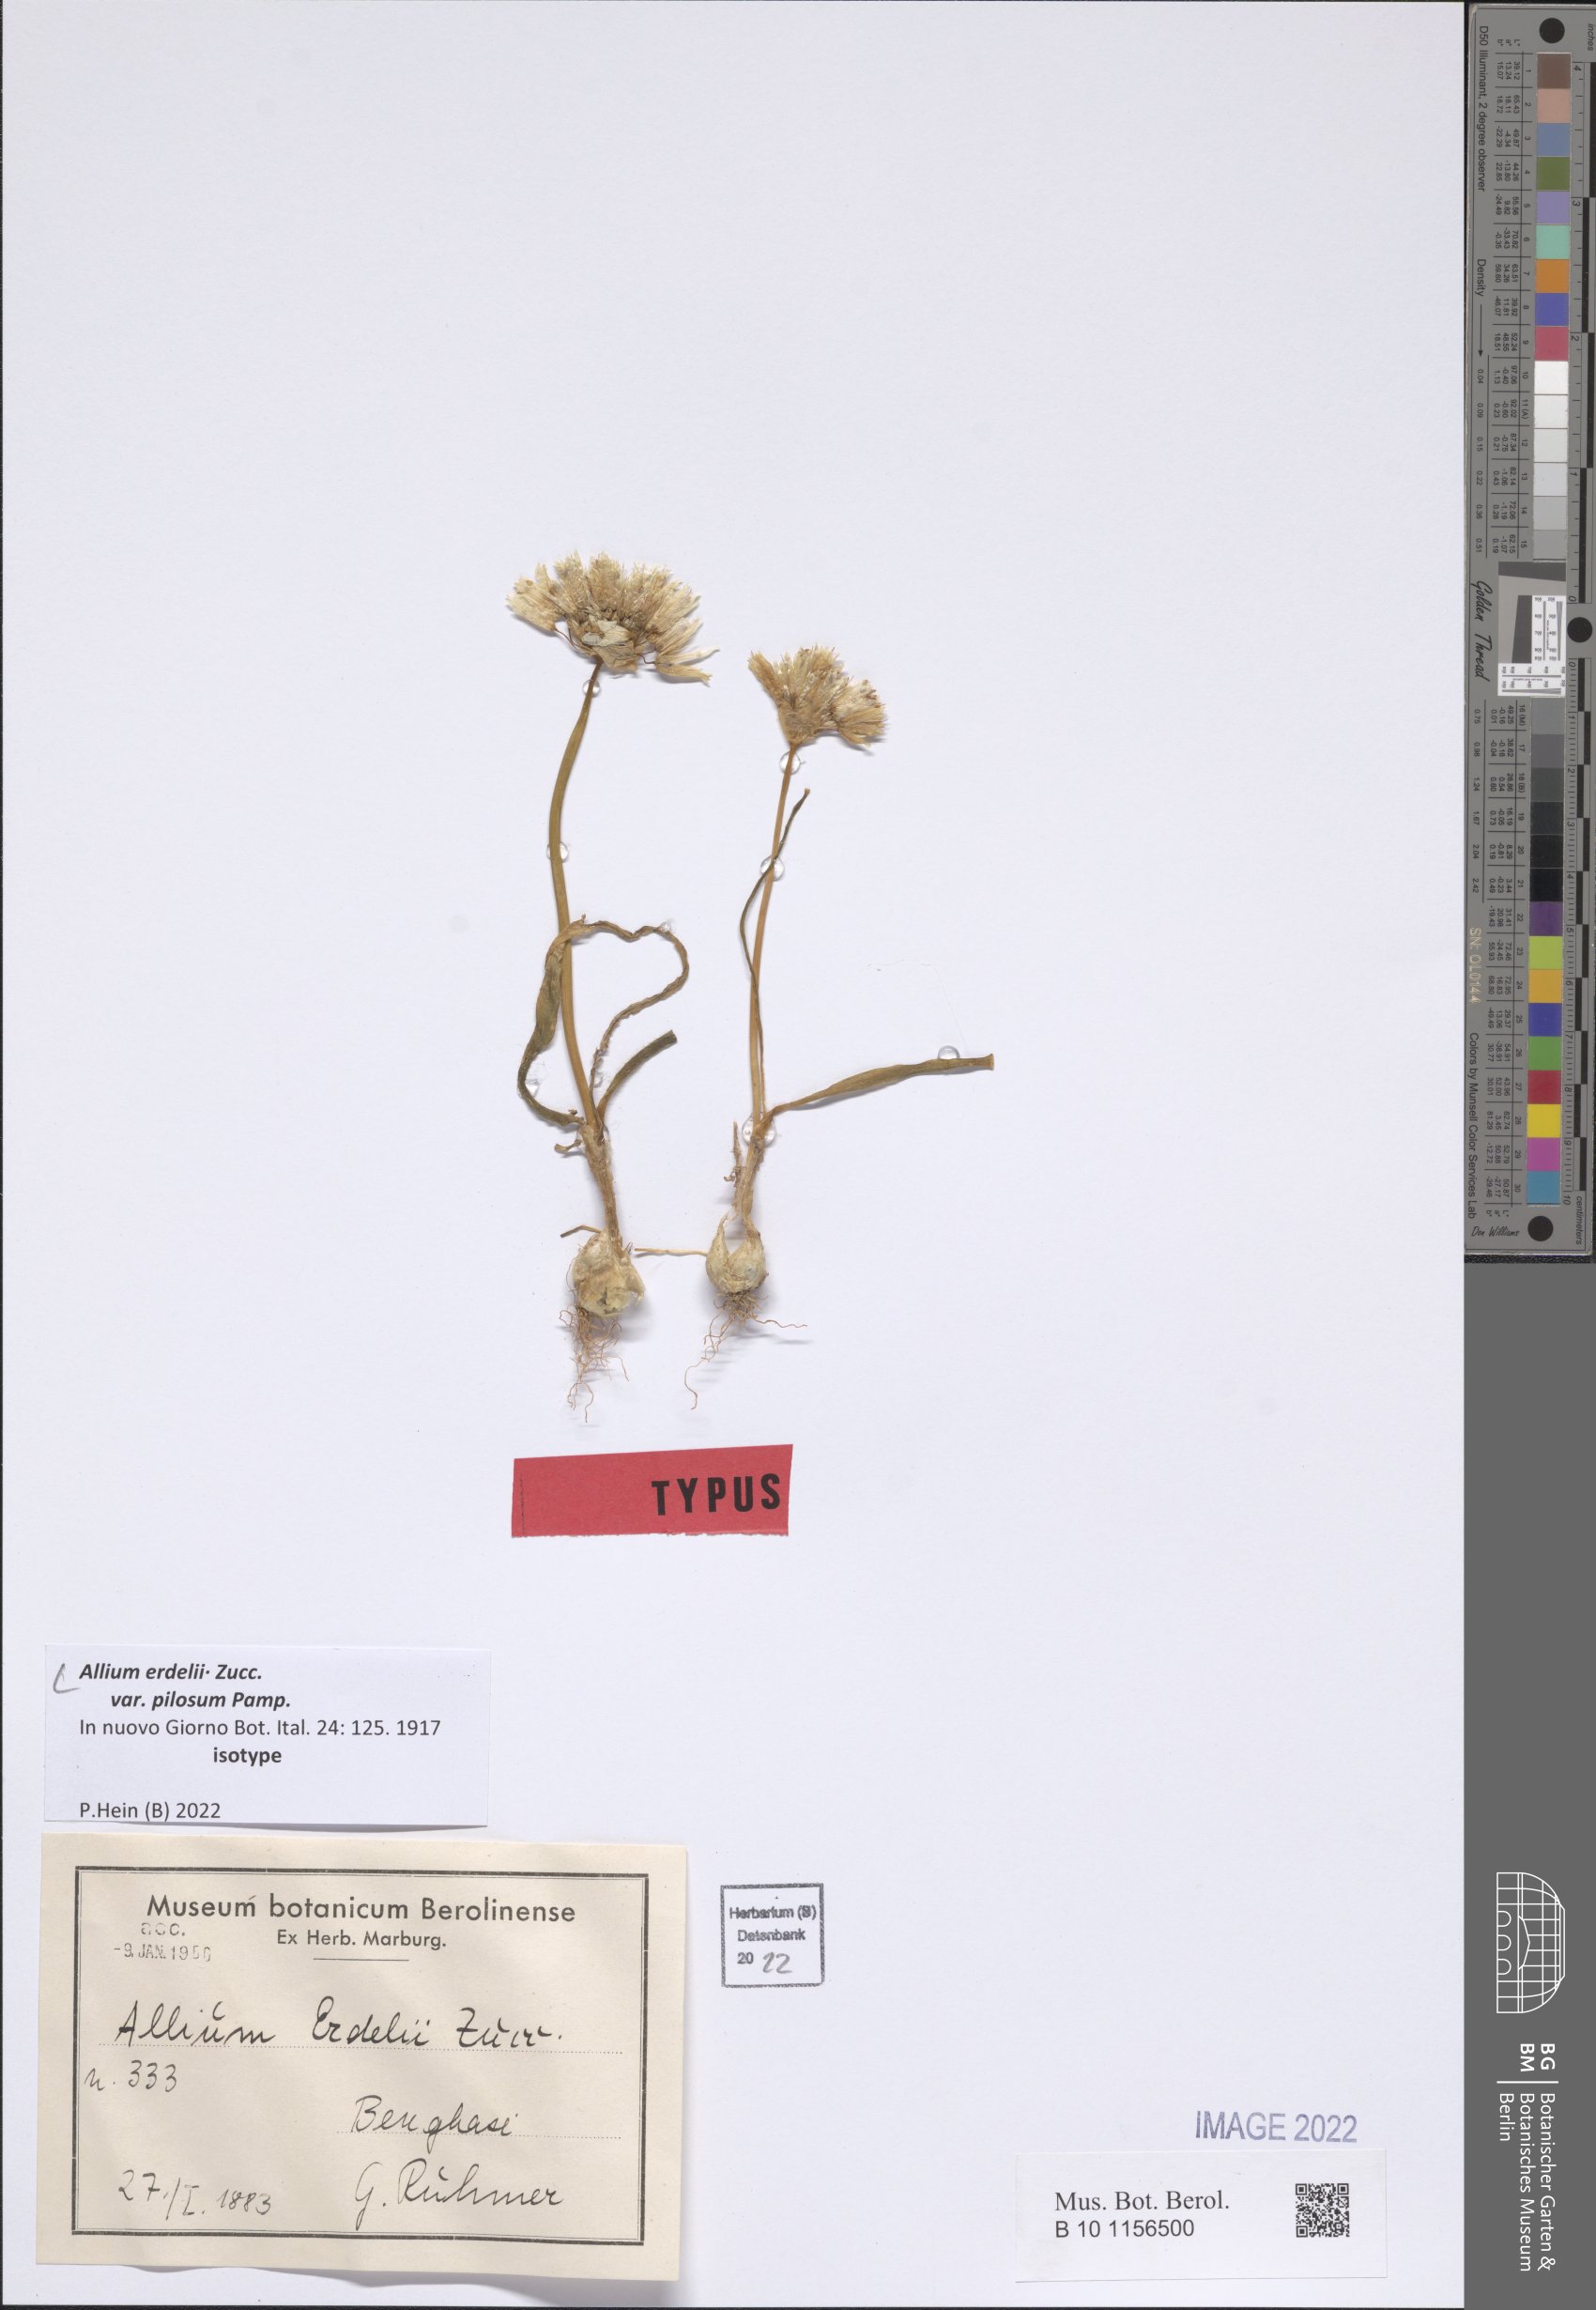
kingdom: Plantae
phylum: Tracheophyta
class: Liliopsida
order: Asparagales
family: Amaryllidaceae
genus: Allium
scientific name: Allium erdelii
